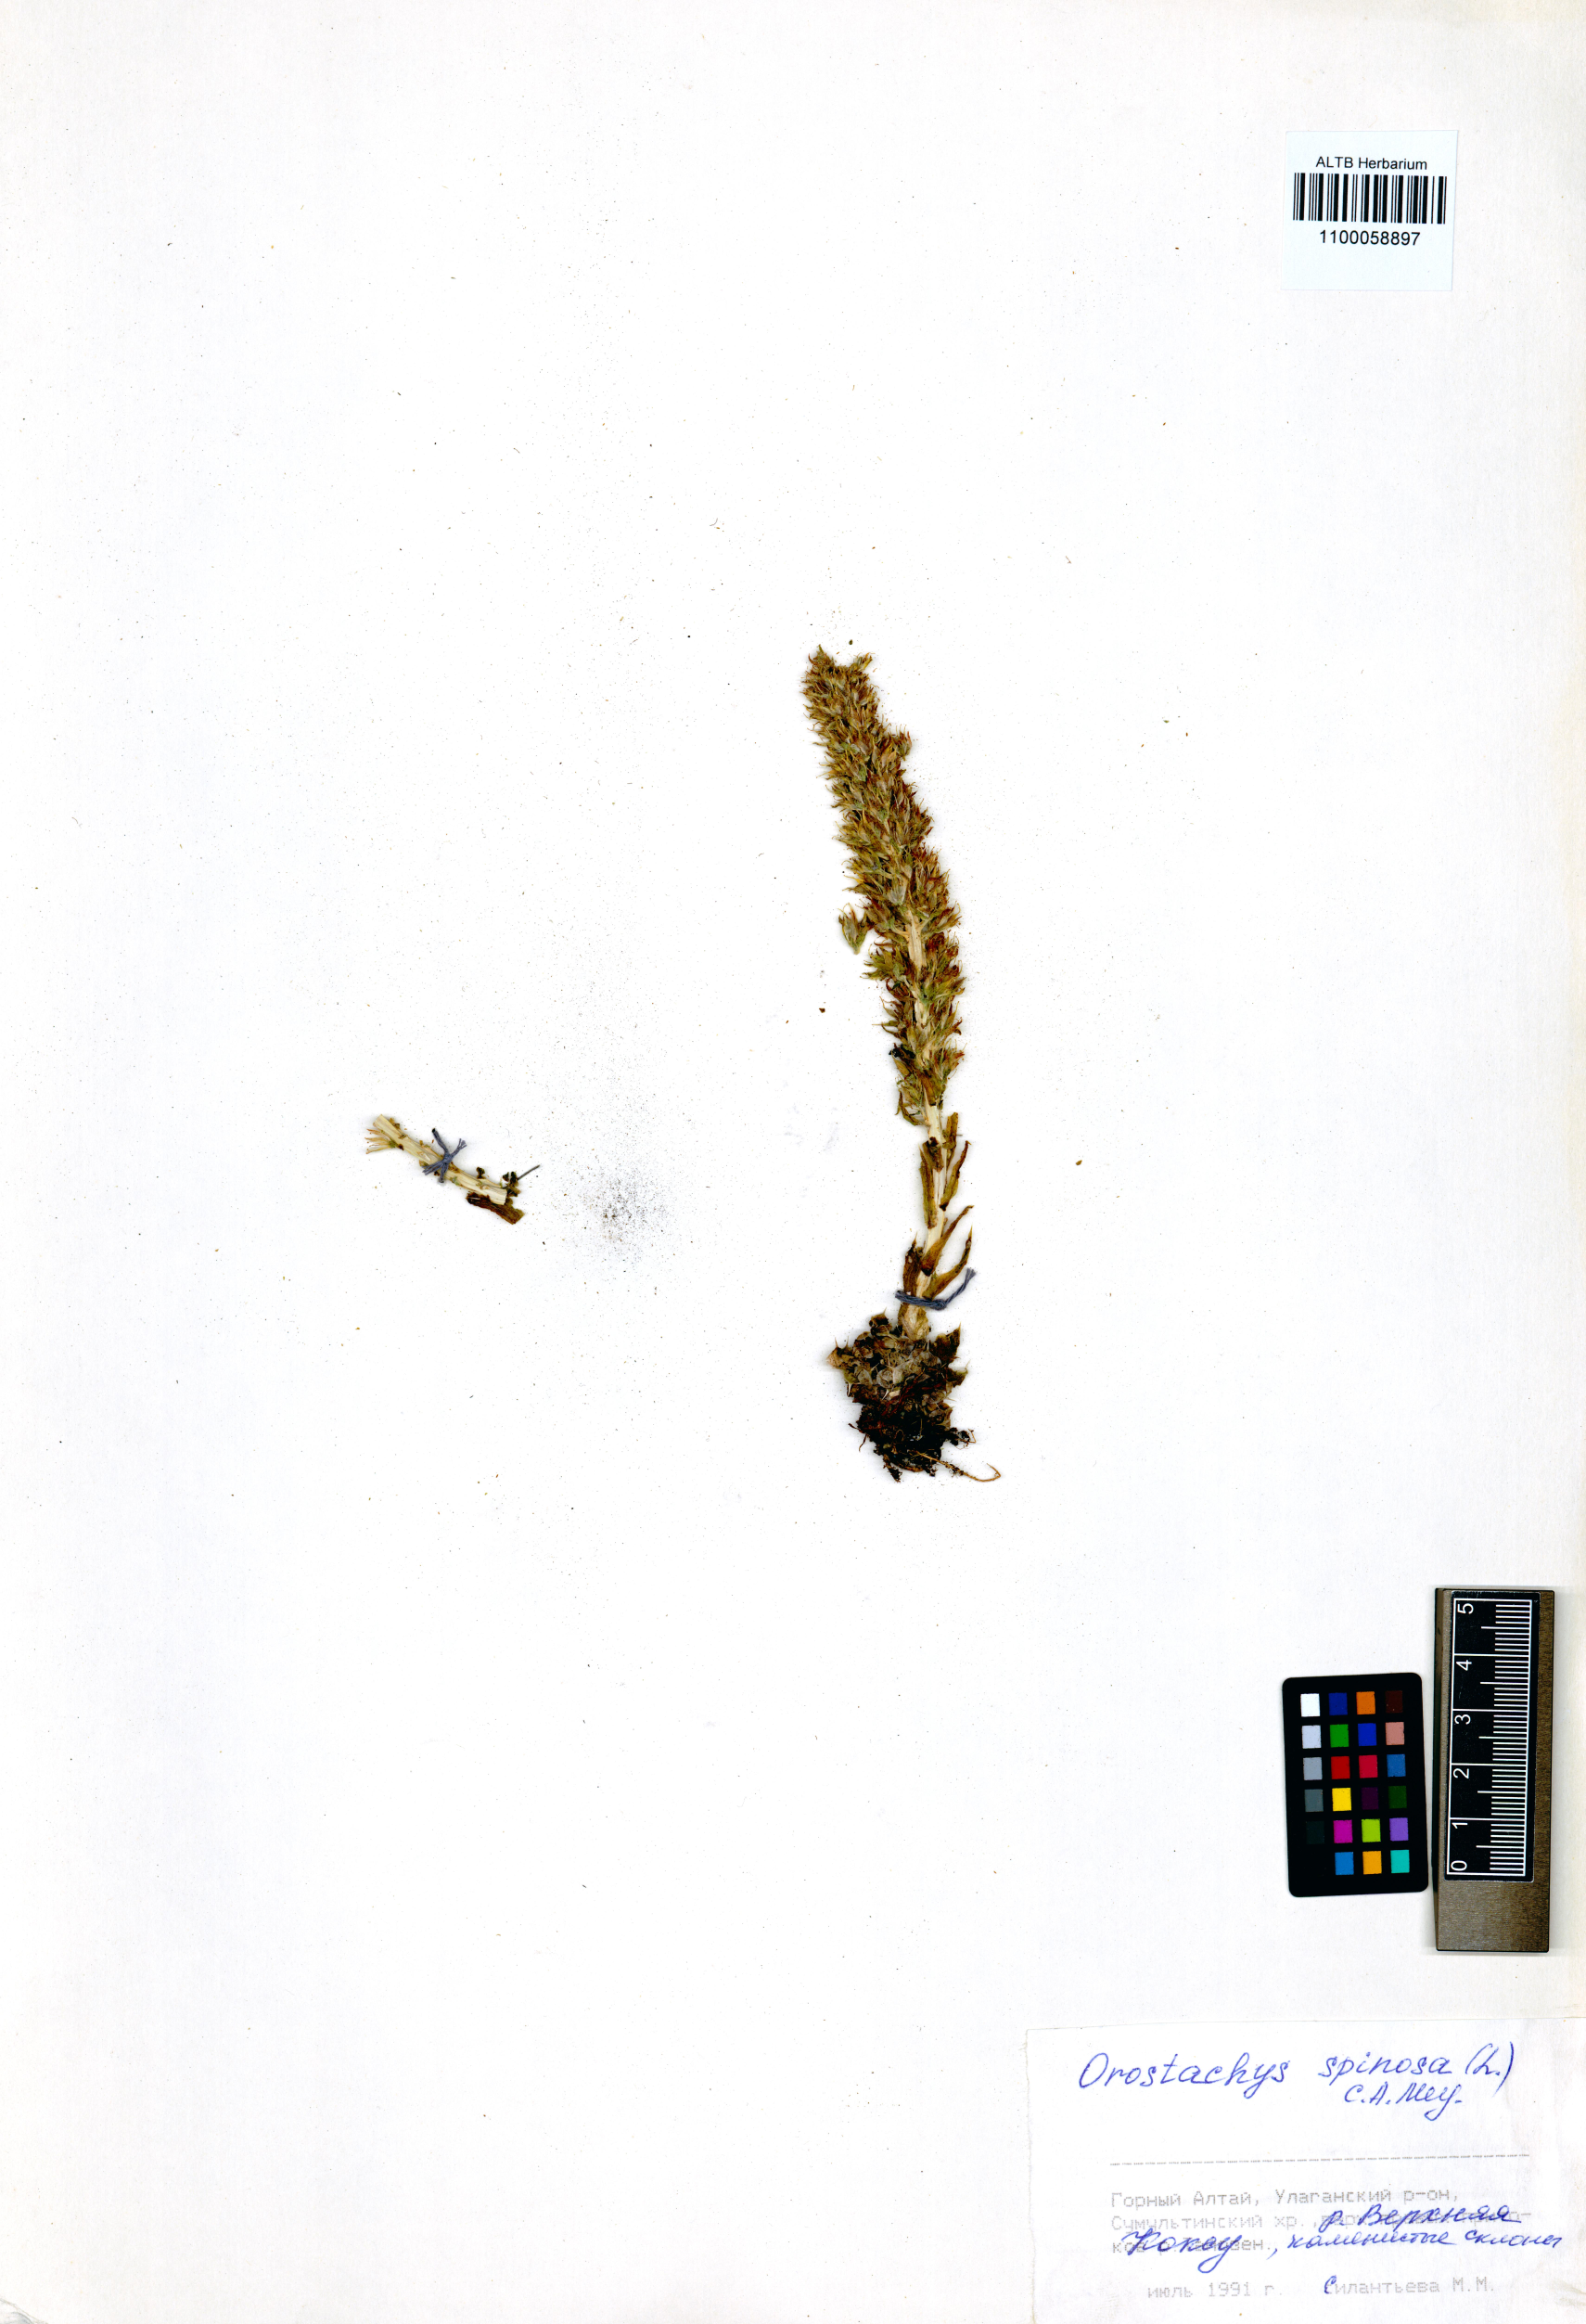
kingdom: Plantae
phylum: Tracheophyta
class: Magnoliopsida
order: Saxifragales
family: Crassulaceae
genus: Orostachys
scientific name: Orostachys spinosa
